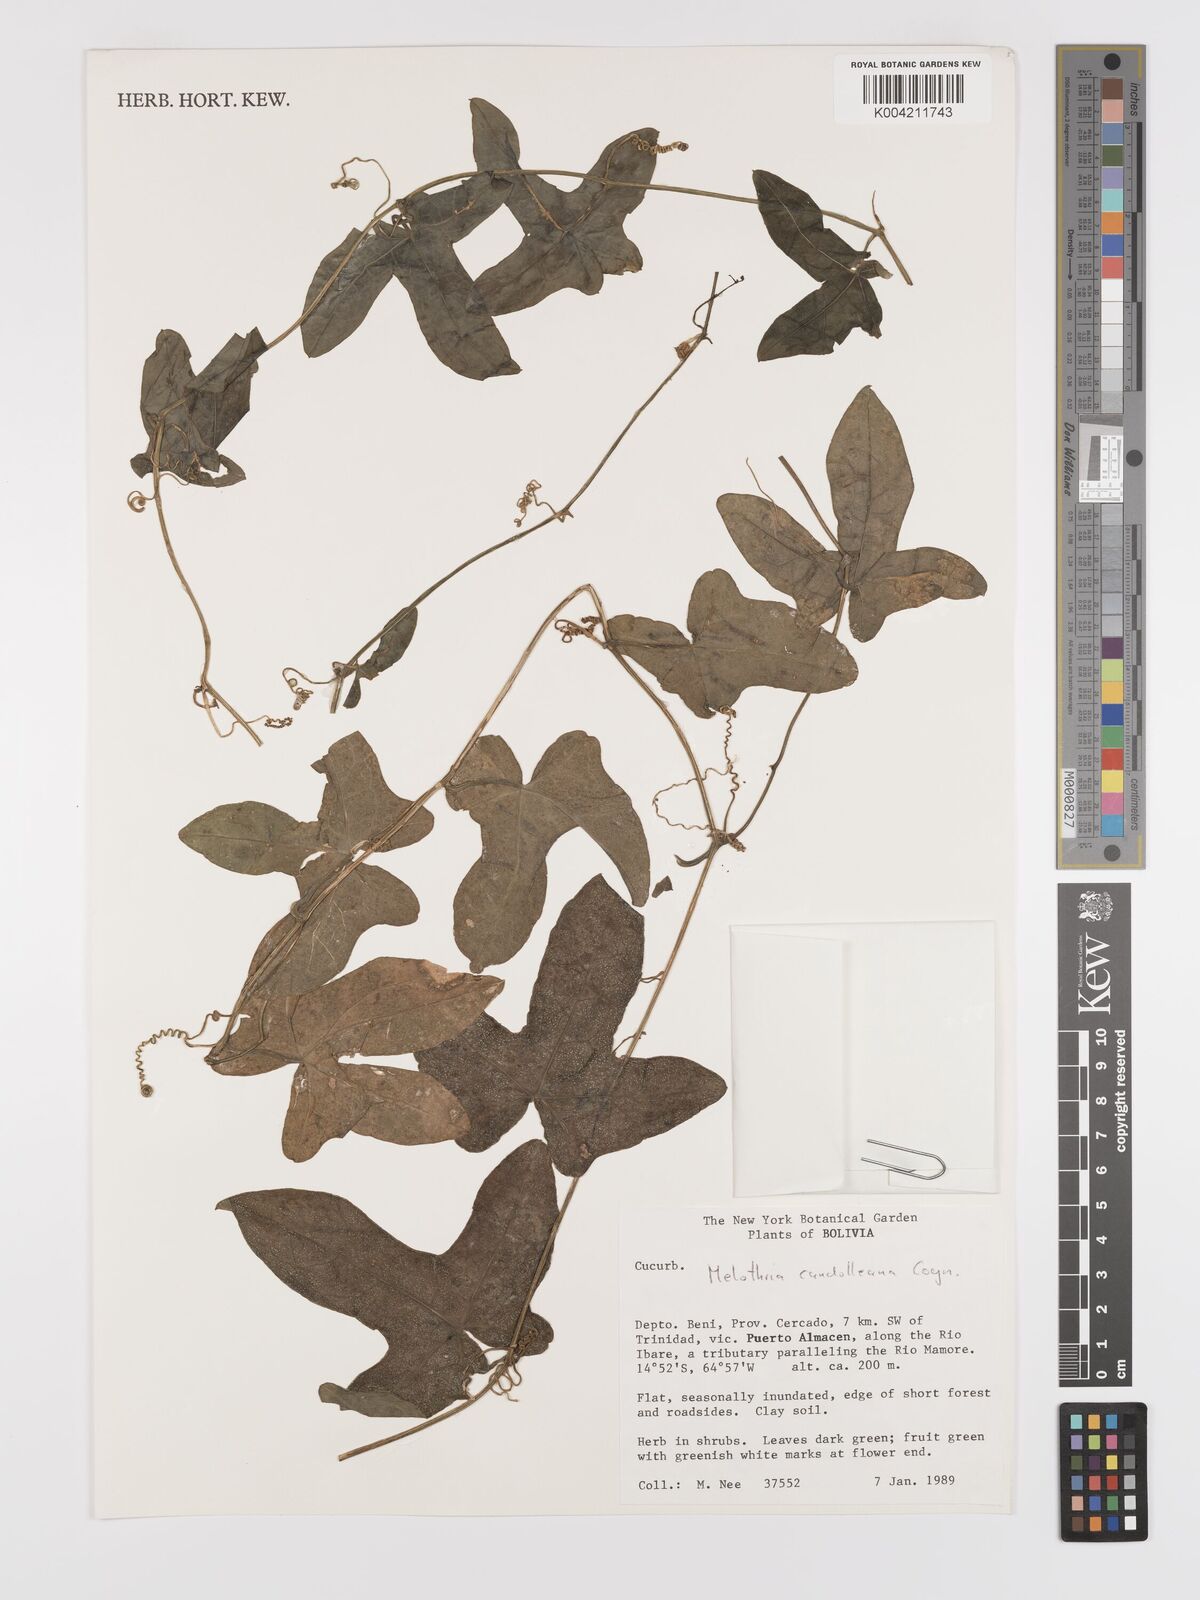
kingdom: Plantae
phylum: Tracheophyta
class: Magnoliopsida
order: Cucurbitales
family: Cucurbitaceae
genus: Melothria
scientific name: Melothria candolleana
